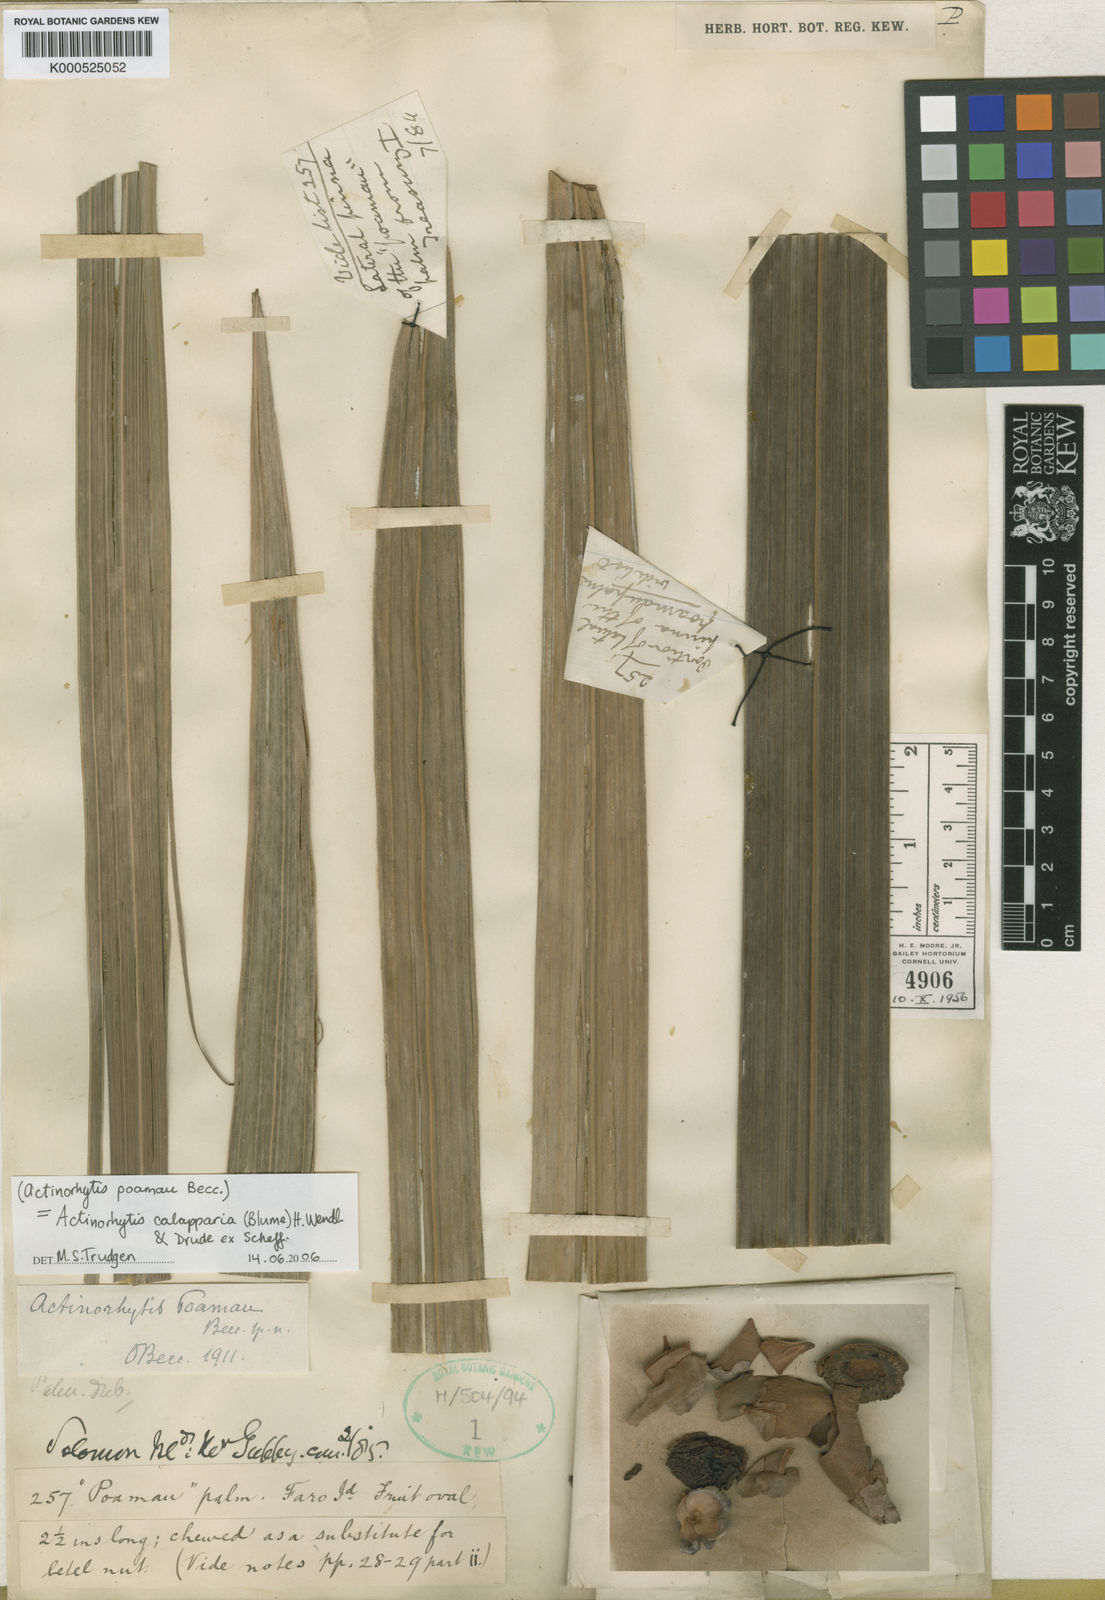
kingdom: Plantae
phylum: Tracheophyta
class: Liliopsida
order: Arecales
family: Arecaceae
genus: Actinorhytis
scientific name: Actinorhytis calapparia
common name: Calappa palm
